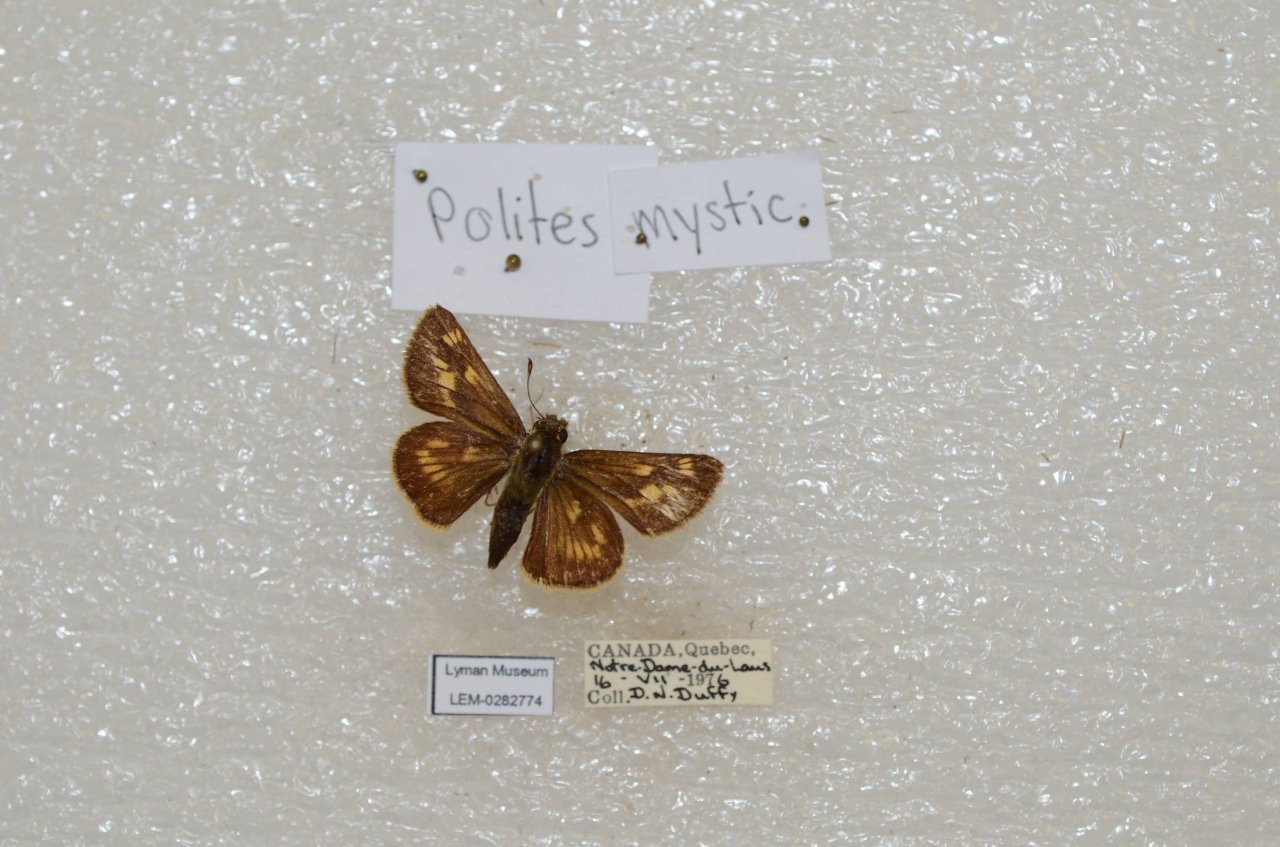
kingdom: Animalia
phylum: Arthropoda
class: Insecta
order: Lepidoptera
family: Hesperiidae
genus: Polites
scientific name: Polites
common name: Long Dash Skipper
